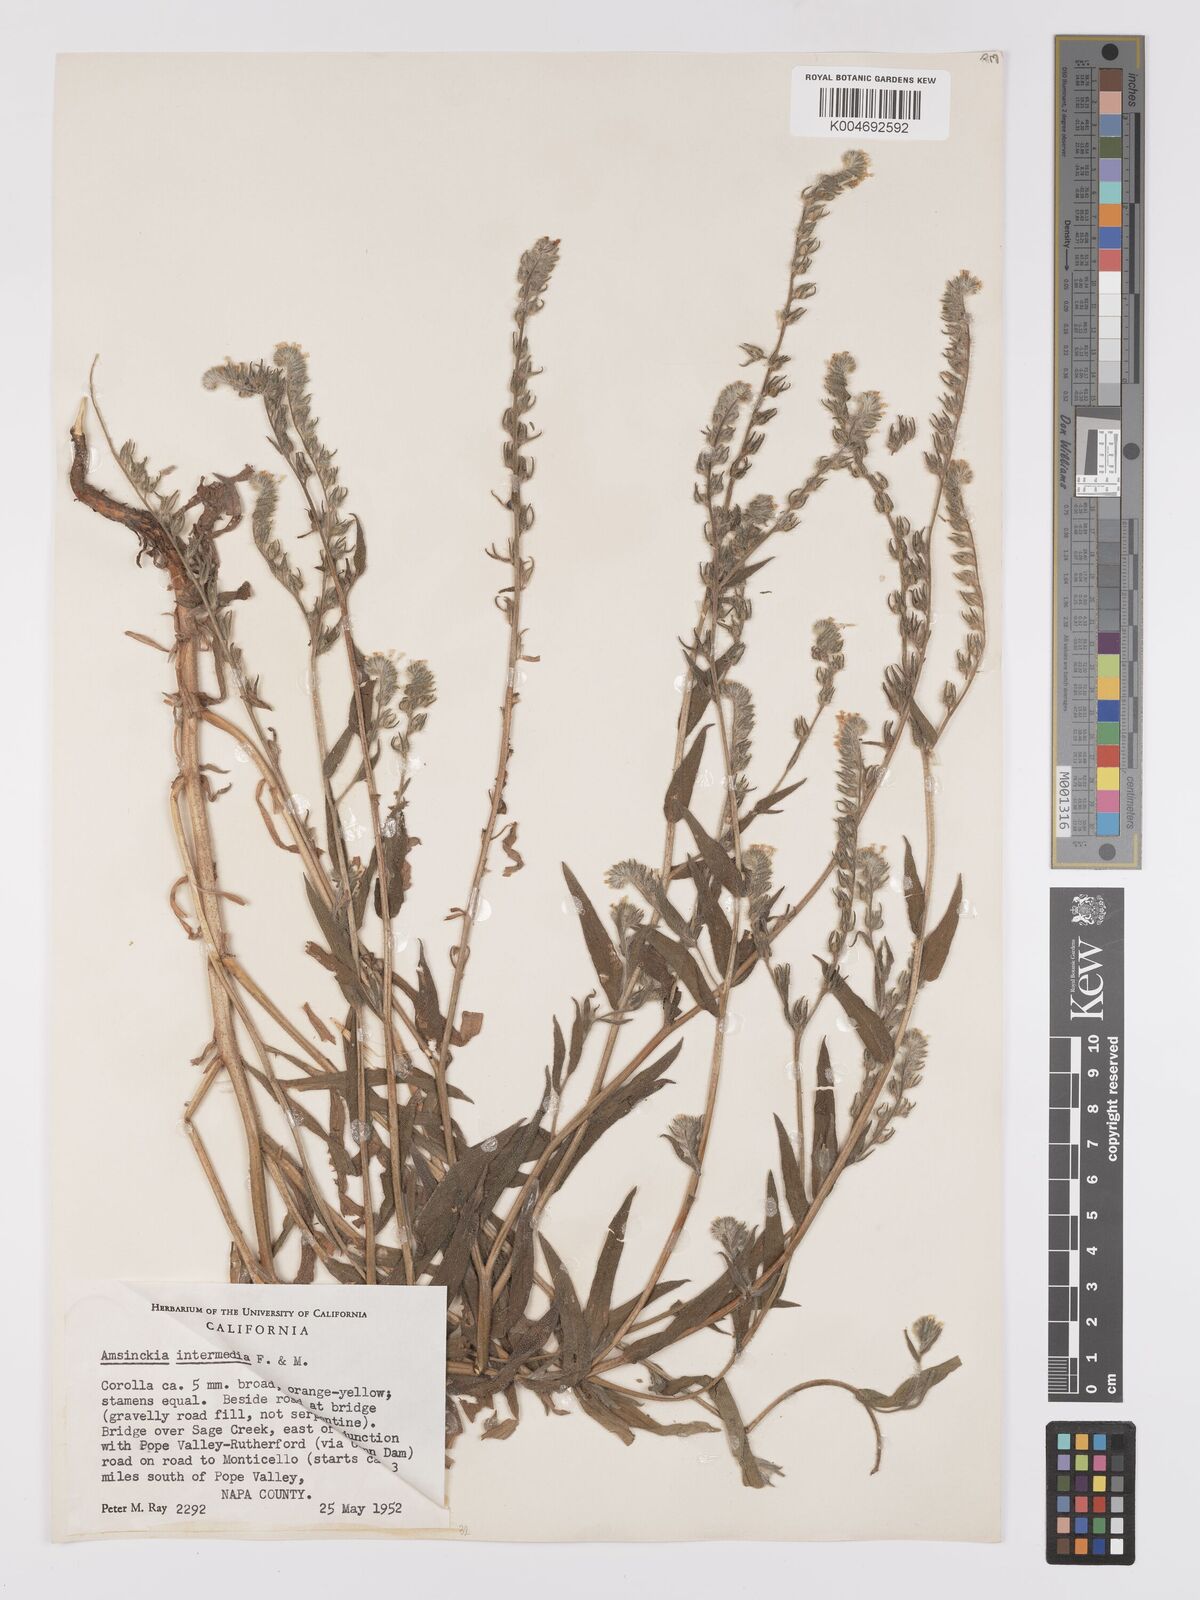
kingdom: Plantae
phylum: Tracheophyta
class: Magnoliopsida
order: Boraginales
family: Boraginaceae
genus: Amsinckia
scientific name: Amsinckia menziesii
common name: Menzies' fiddleneck
